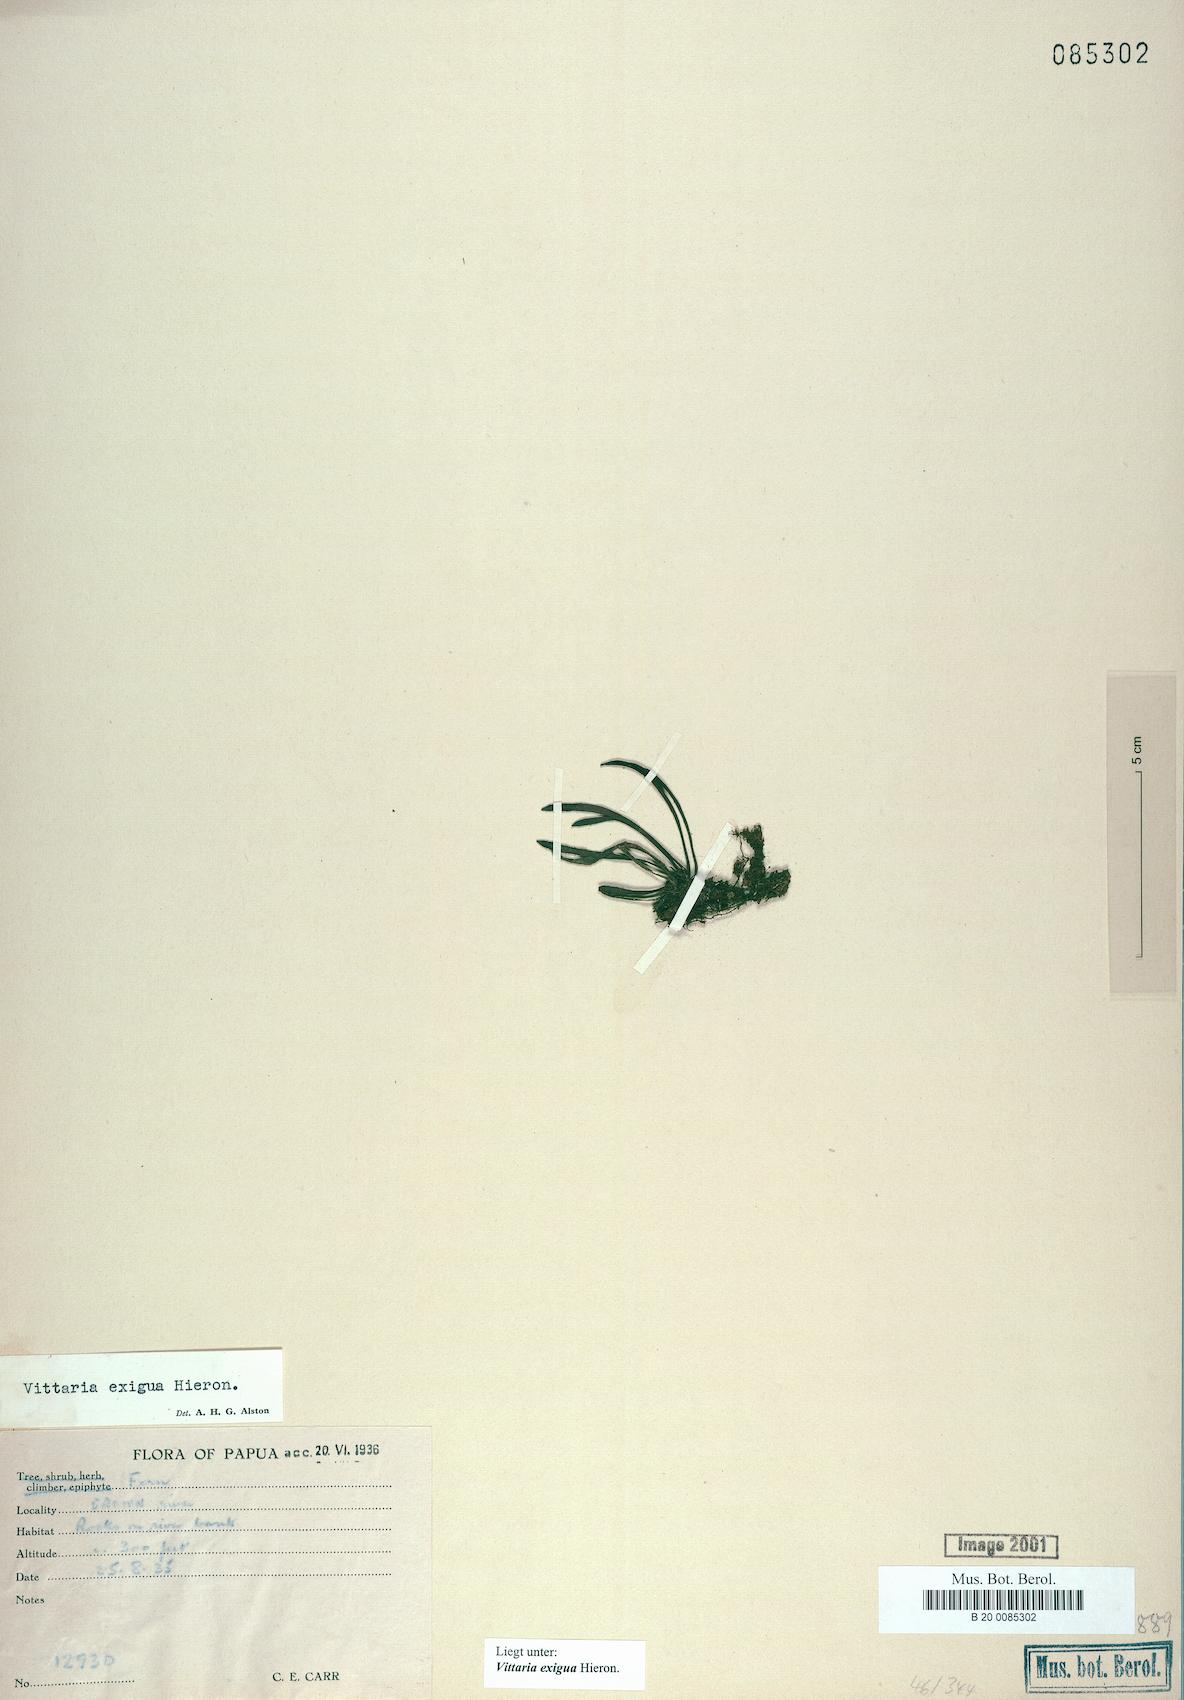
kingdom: Plantae
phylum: Tracheophyta
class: Polypodiopsida
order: Polypodiales
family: Pteridaceae
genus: Haplopteris
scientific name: Haplopteris exigua
